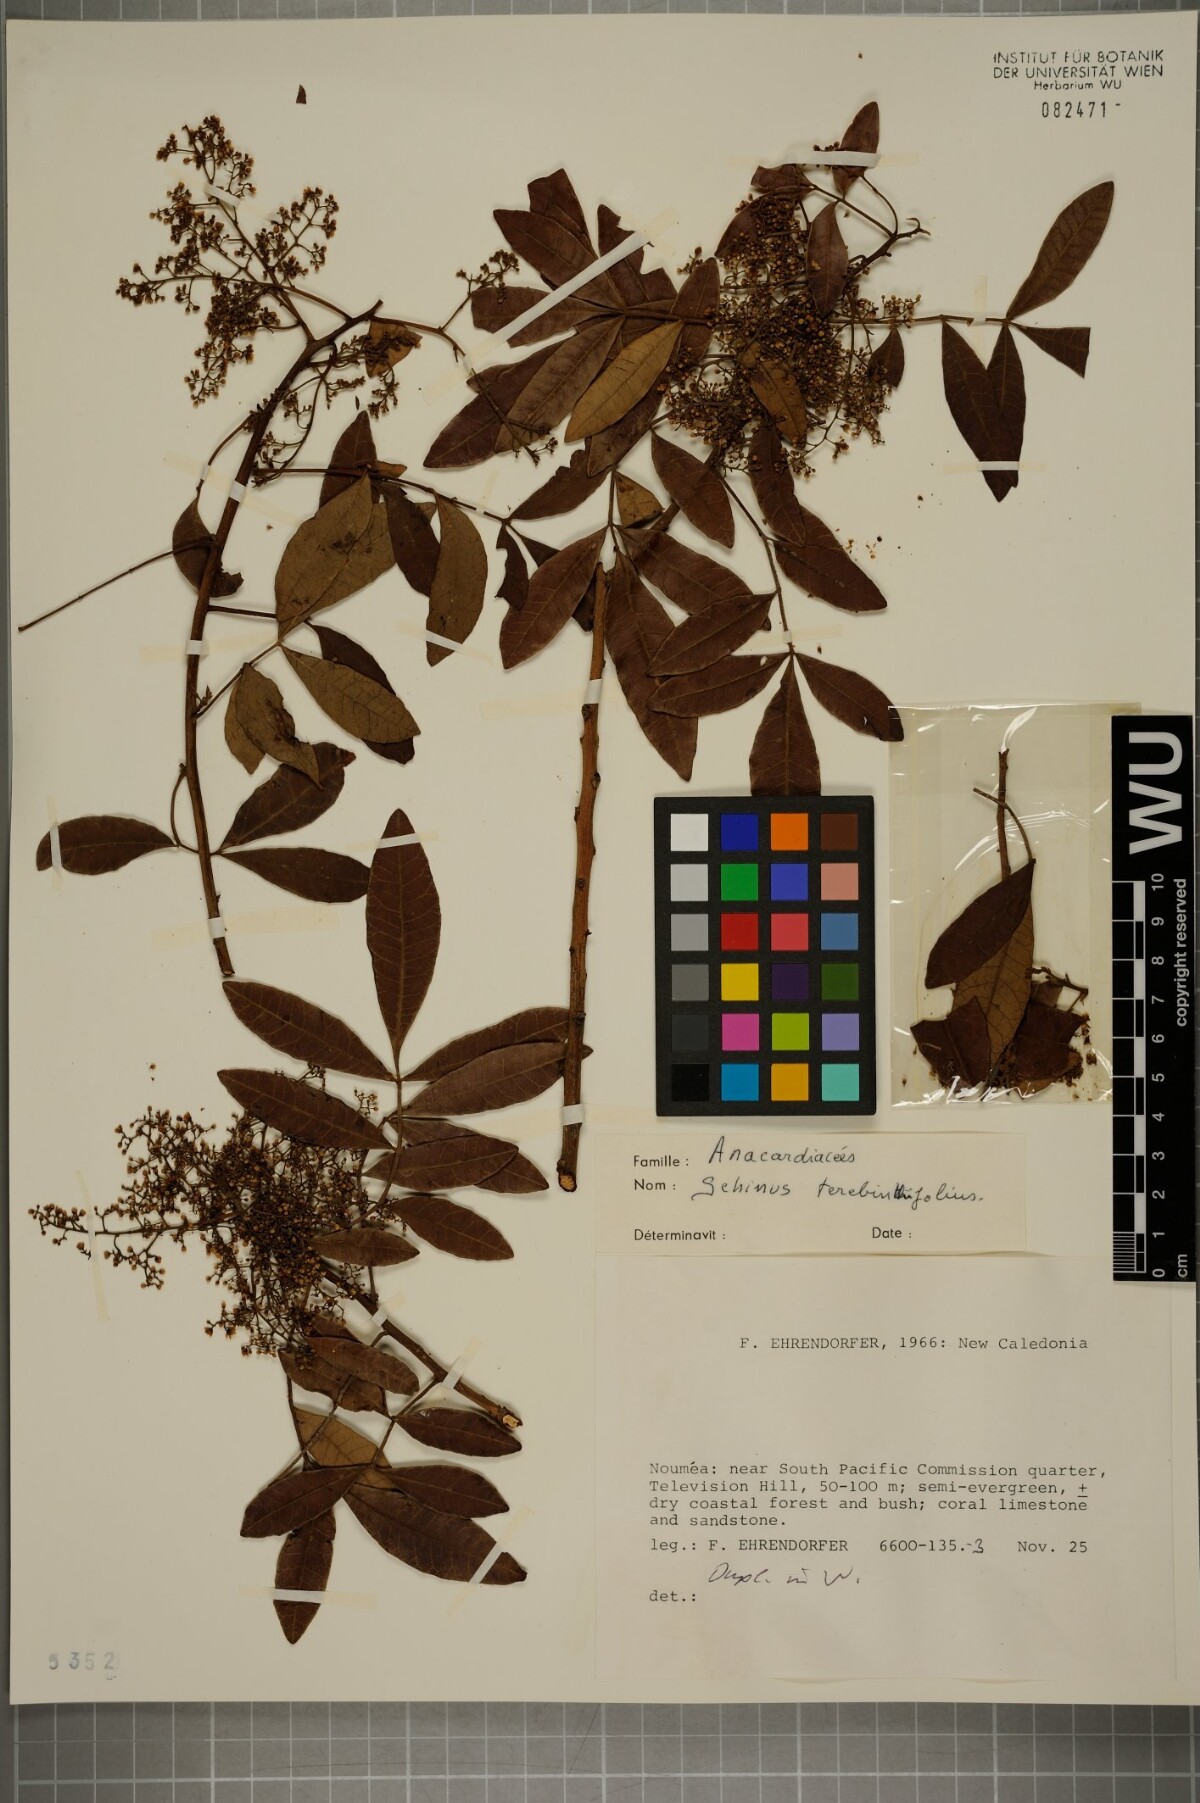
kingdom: Plantae
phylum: Tracheophyta
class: Magnoliopsida
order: Sapindales
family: Anacardiaceae
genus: Schinus
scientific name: Schinus terebinthifolia
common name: Brazilian peppertree
